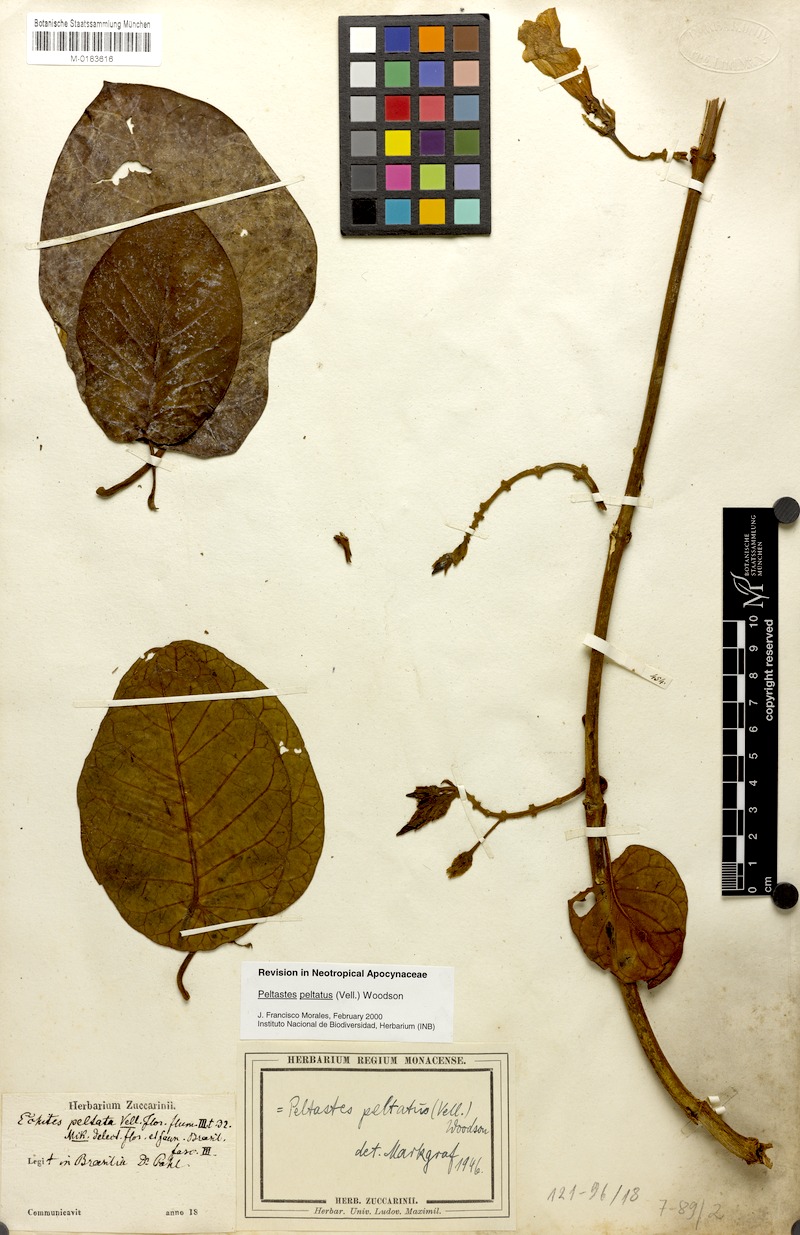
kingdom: Plantae
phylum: Tracheophyta
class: Magnoliopsida
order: Gentianales
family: Apocynaceae
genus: Macropharynx
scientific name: Macropharynx peltata
